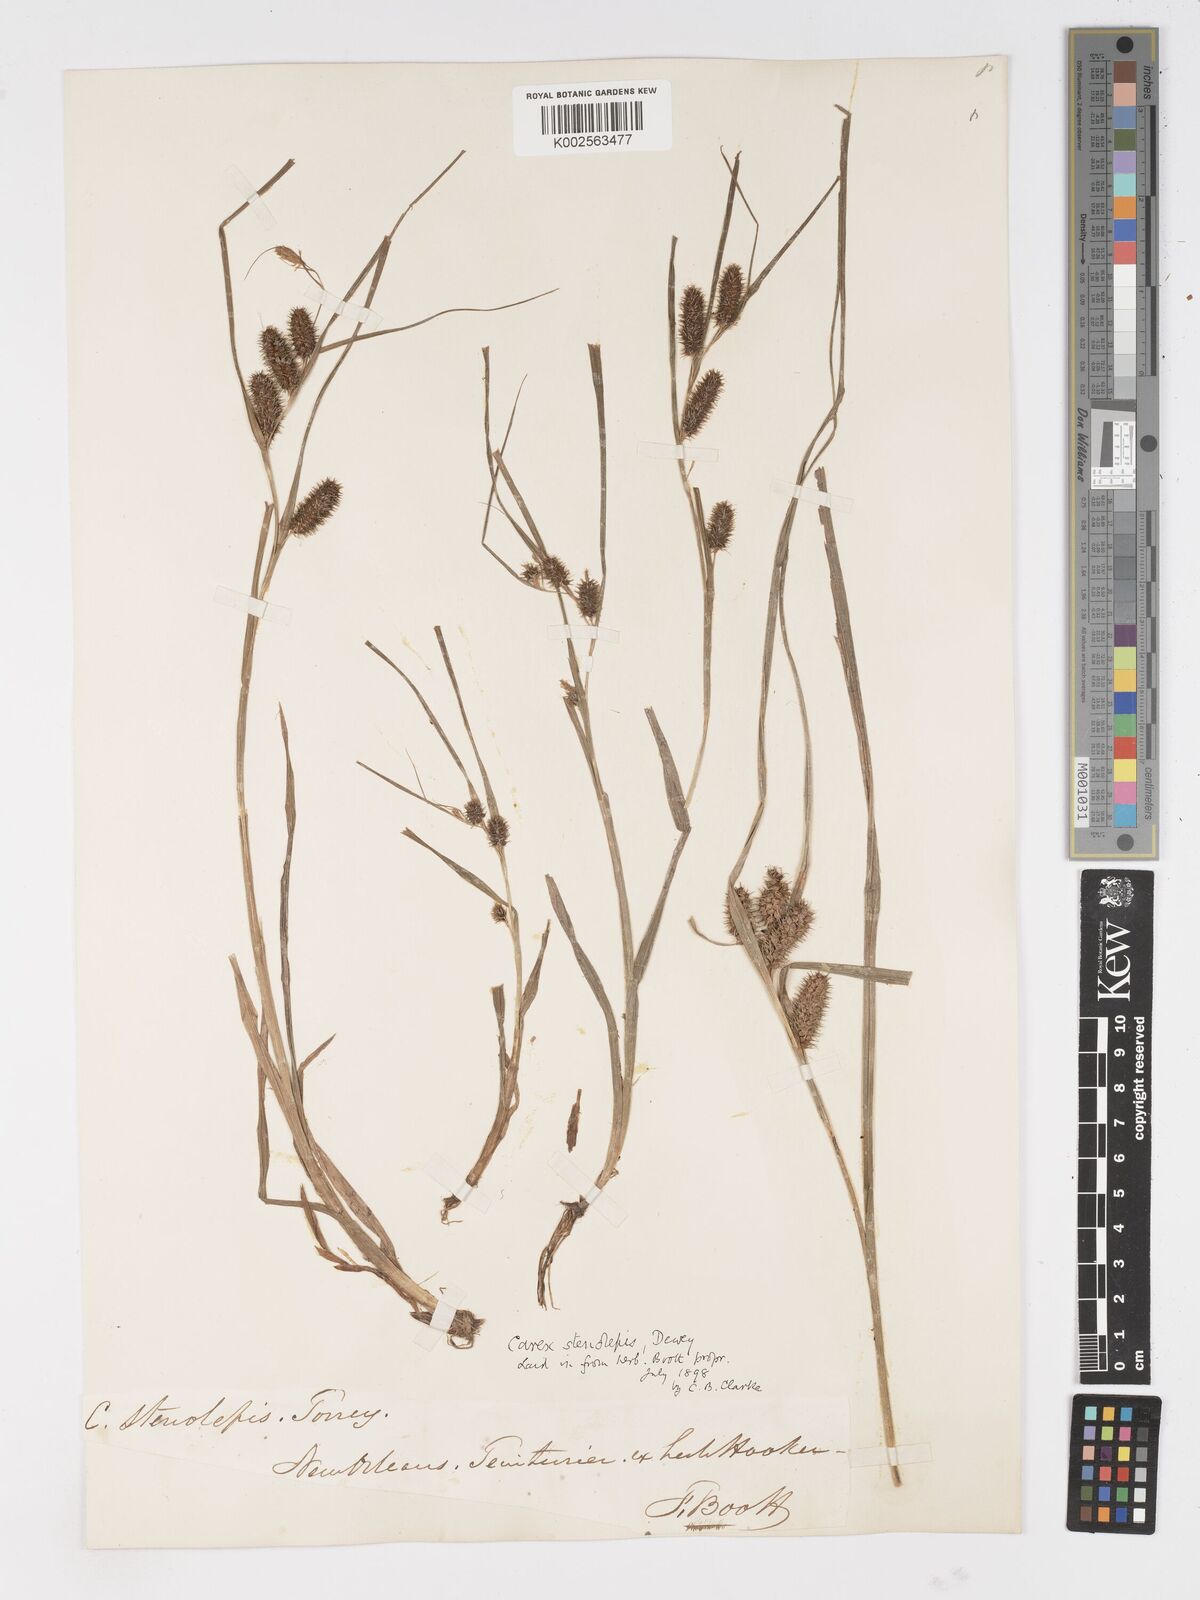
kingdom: Plantae
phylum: Tracheophyta
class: Liliopsida
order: Poales
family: Cyperaceae
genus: Carex
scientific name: Carex frankii
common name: Frank's sedge
